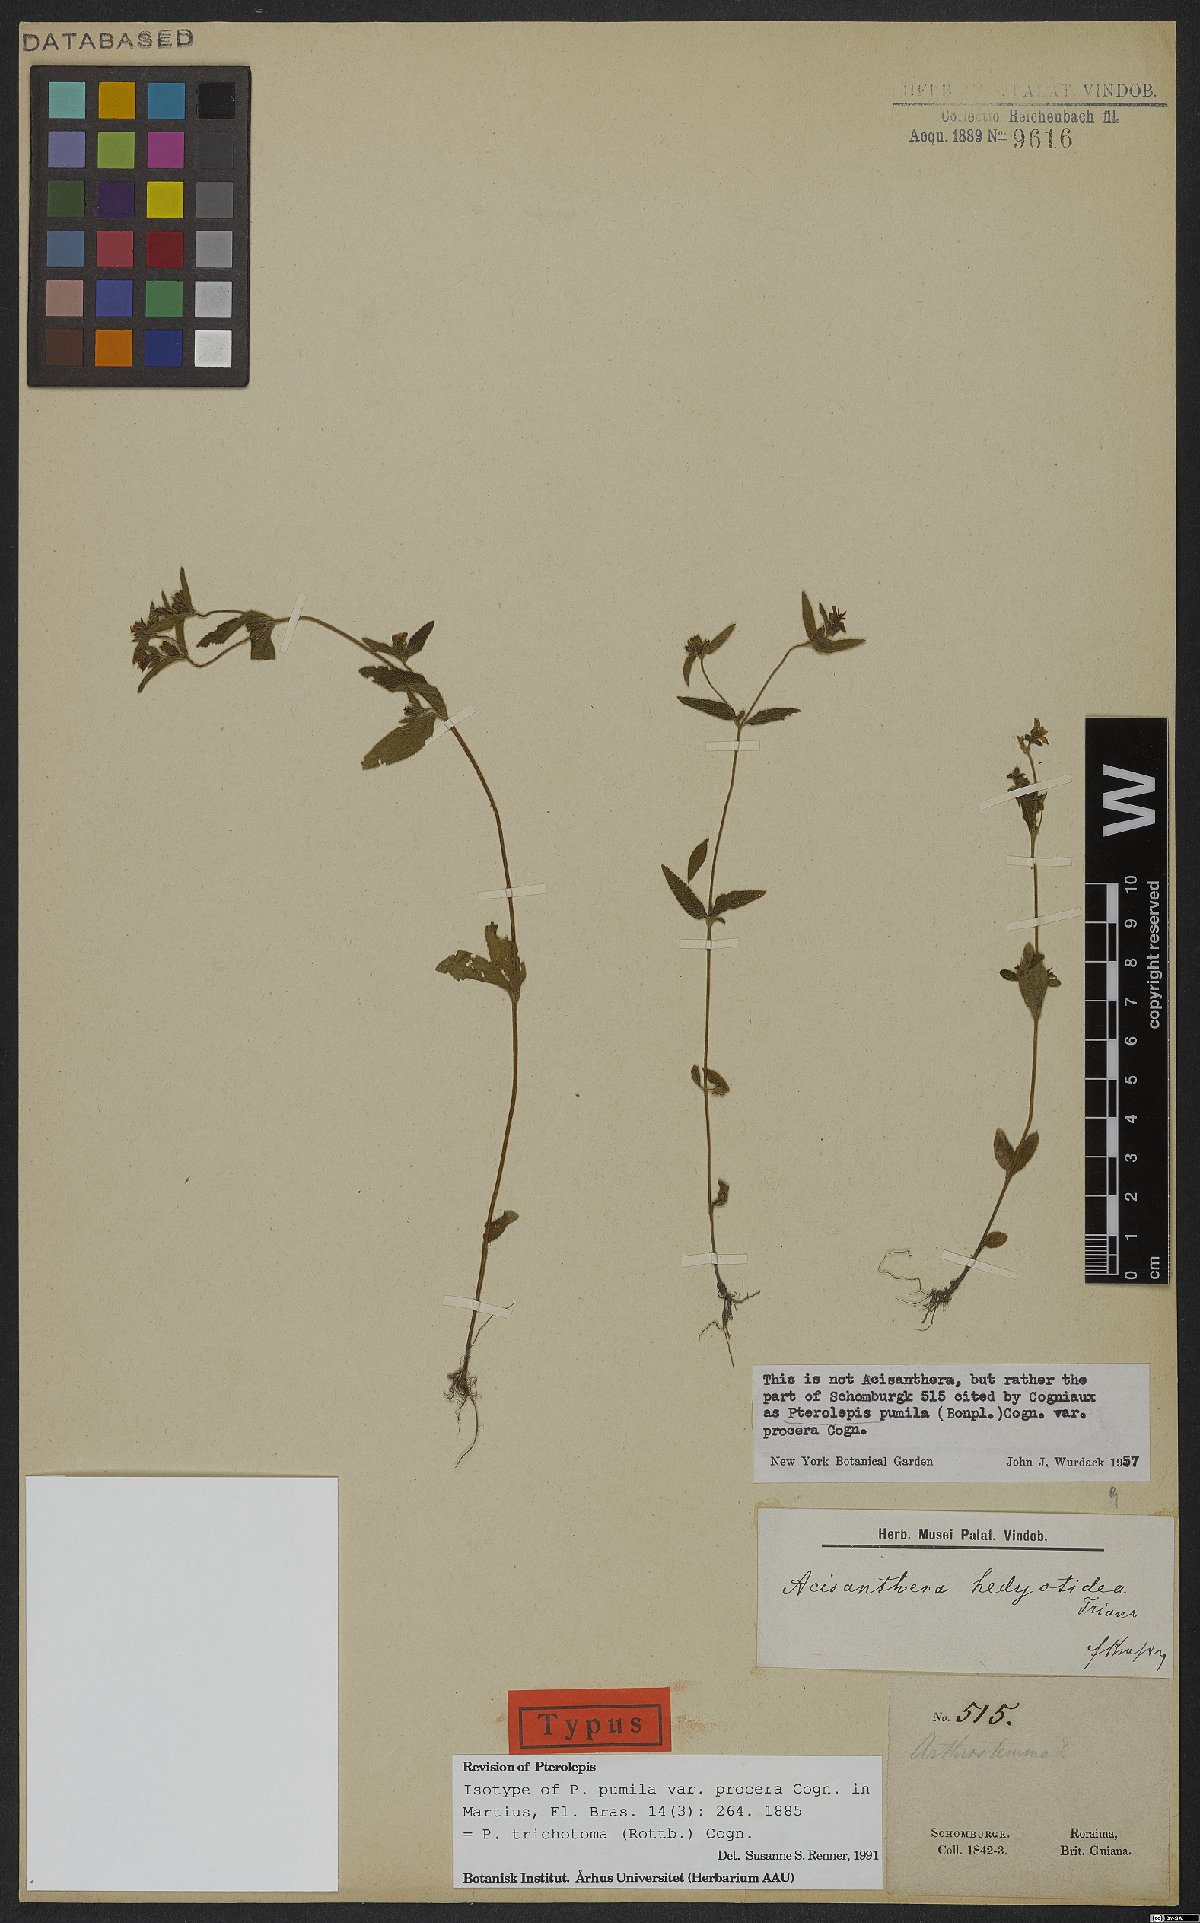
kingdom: Plantae
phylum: Tracheophyta
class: Magnoliopsida
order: Myrtales
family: Melastomataceae
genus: Pterolepis
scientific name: Pterolepis trichotoma
